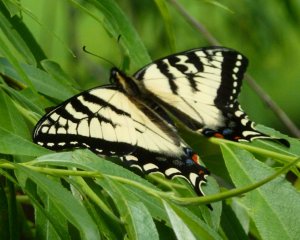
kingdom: Animalia
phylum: Arthropoda
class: Insecta
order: Lepidoptera
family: Papilionidae
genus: Pterourus
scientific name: Pterourus canadensis
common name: Canadian Tiger Swallowtail
